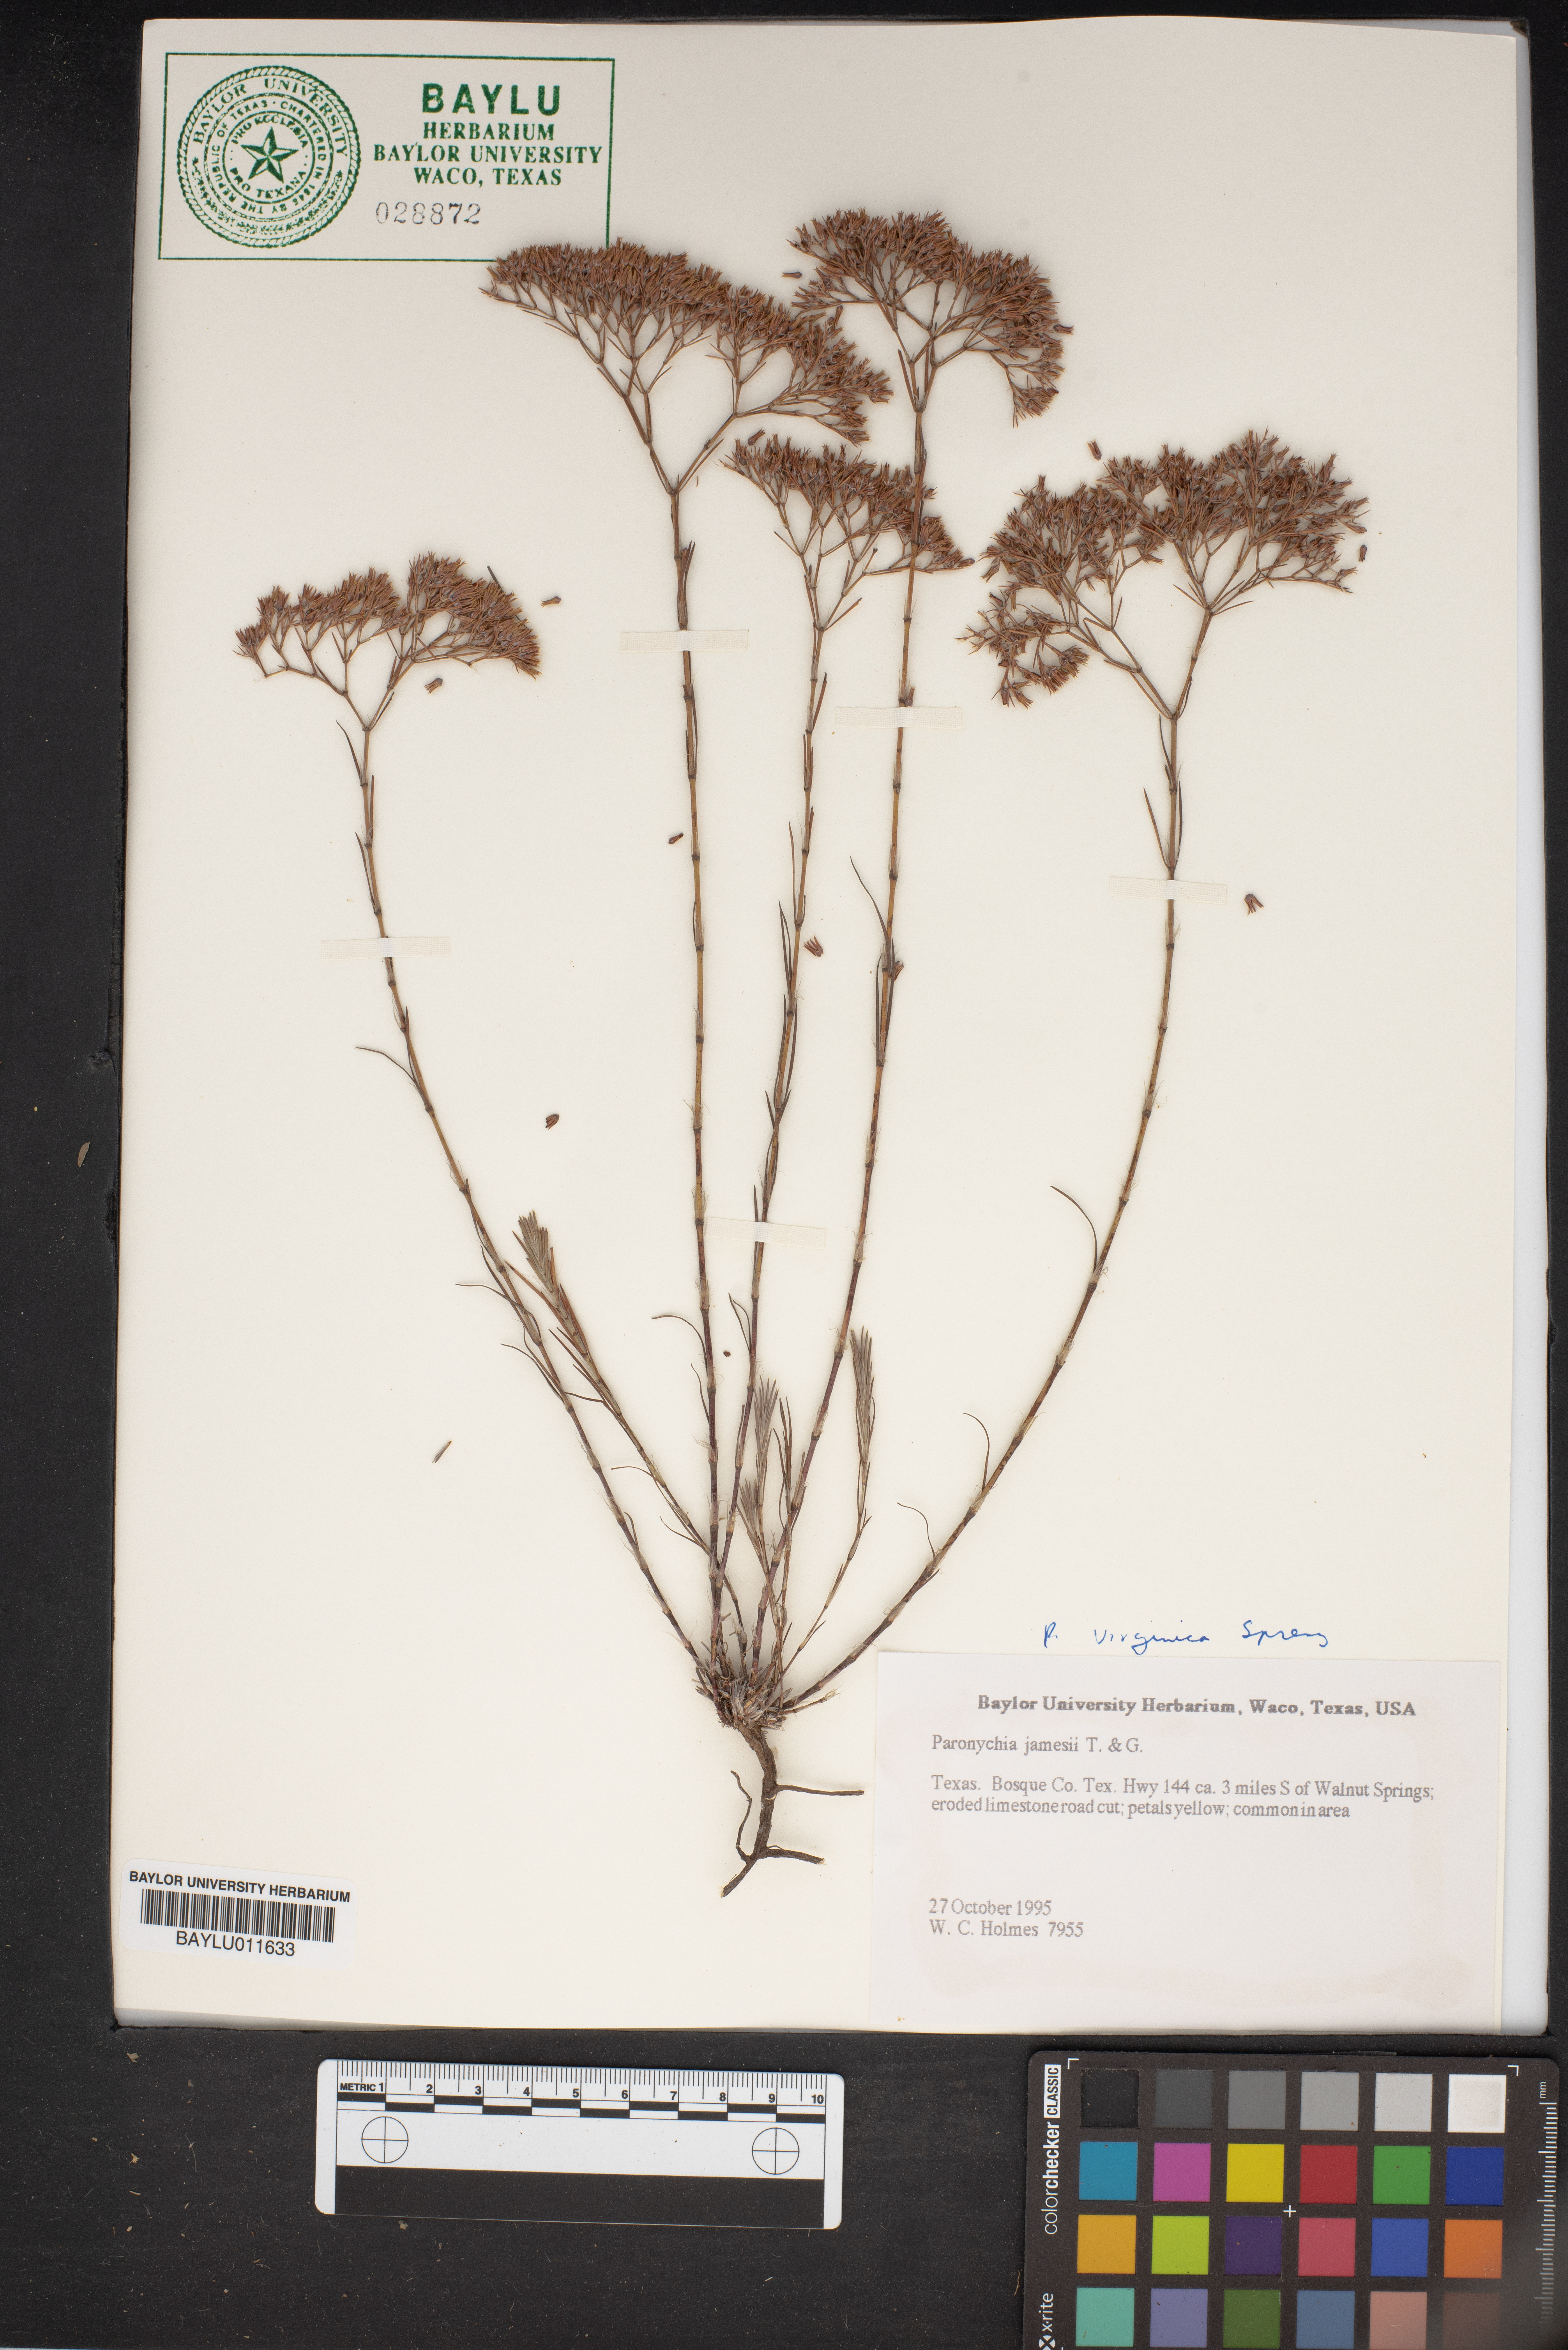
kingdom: Plantae
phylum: Tracheophyta
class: Magnoliopsida
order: Caryophyllales
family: Caryophyllaceae
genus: Paronychia
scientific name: Paronychia jamesii
